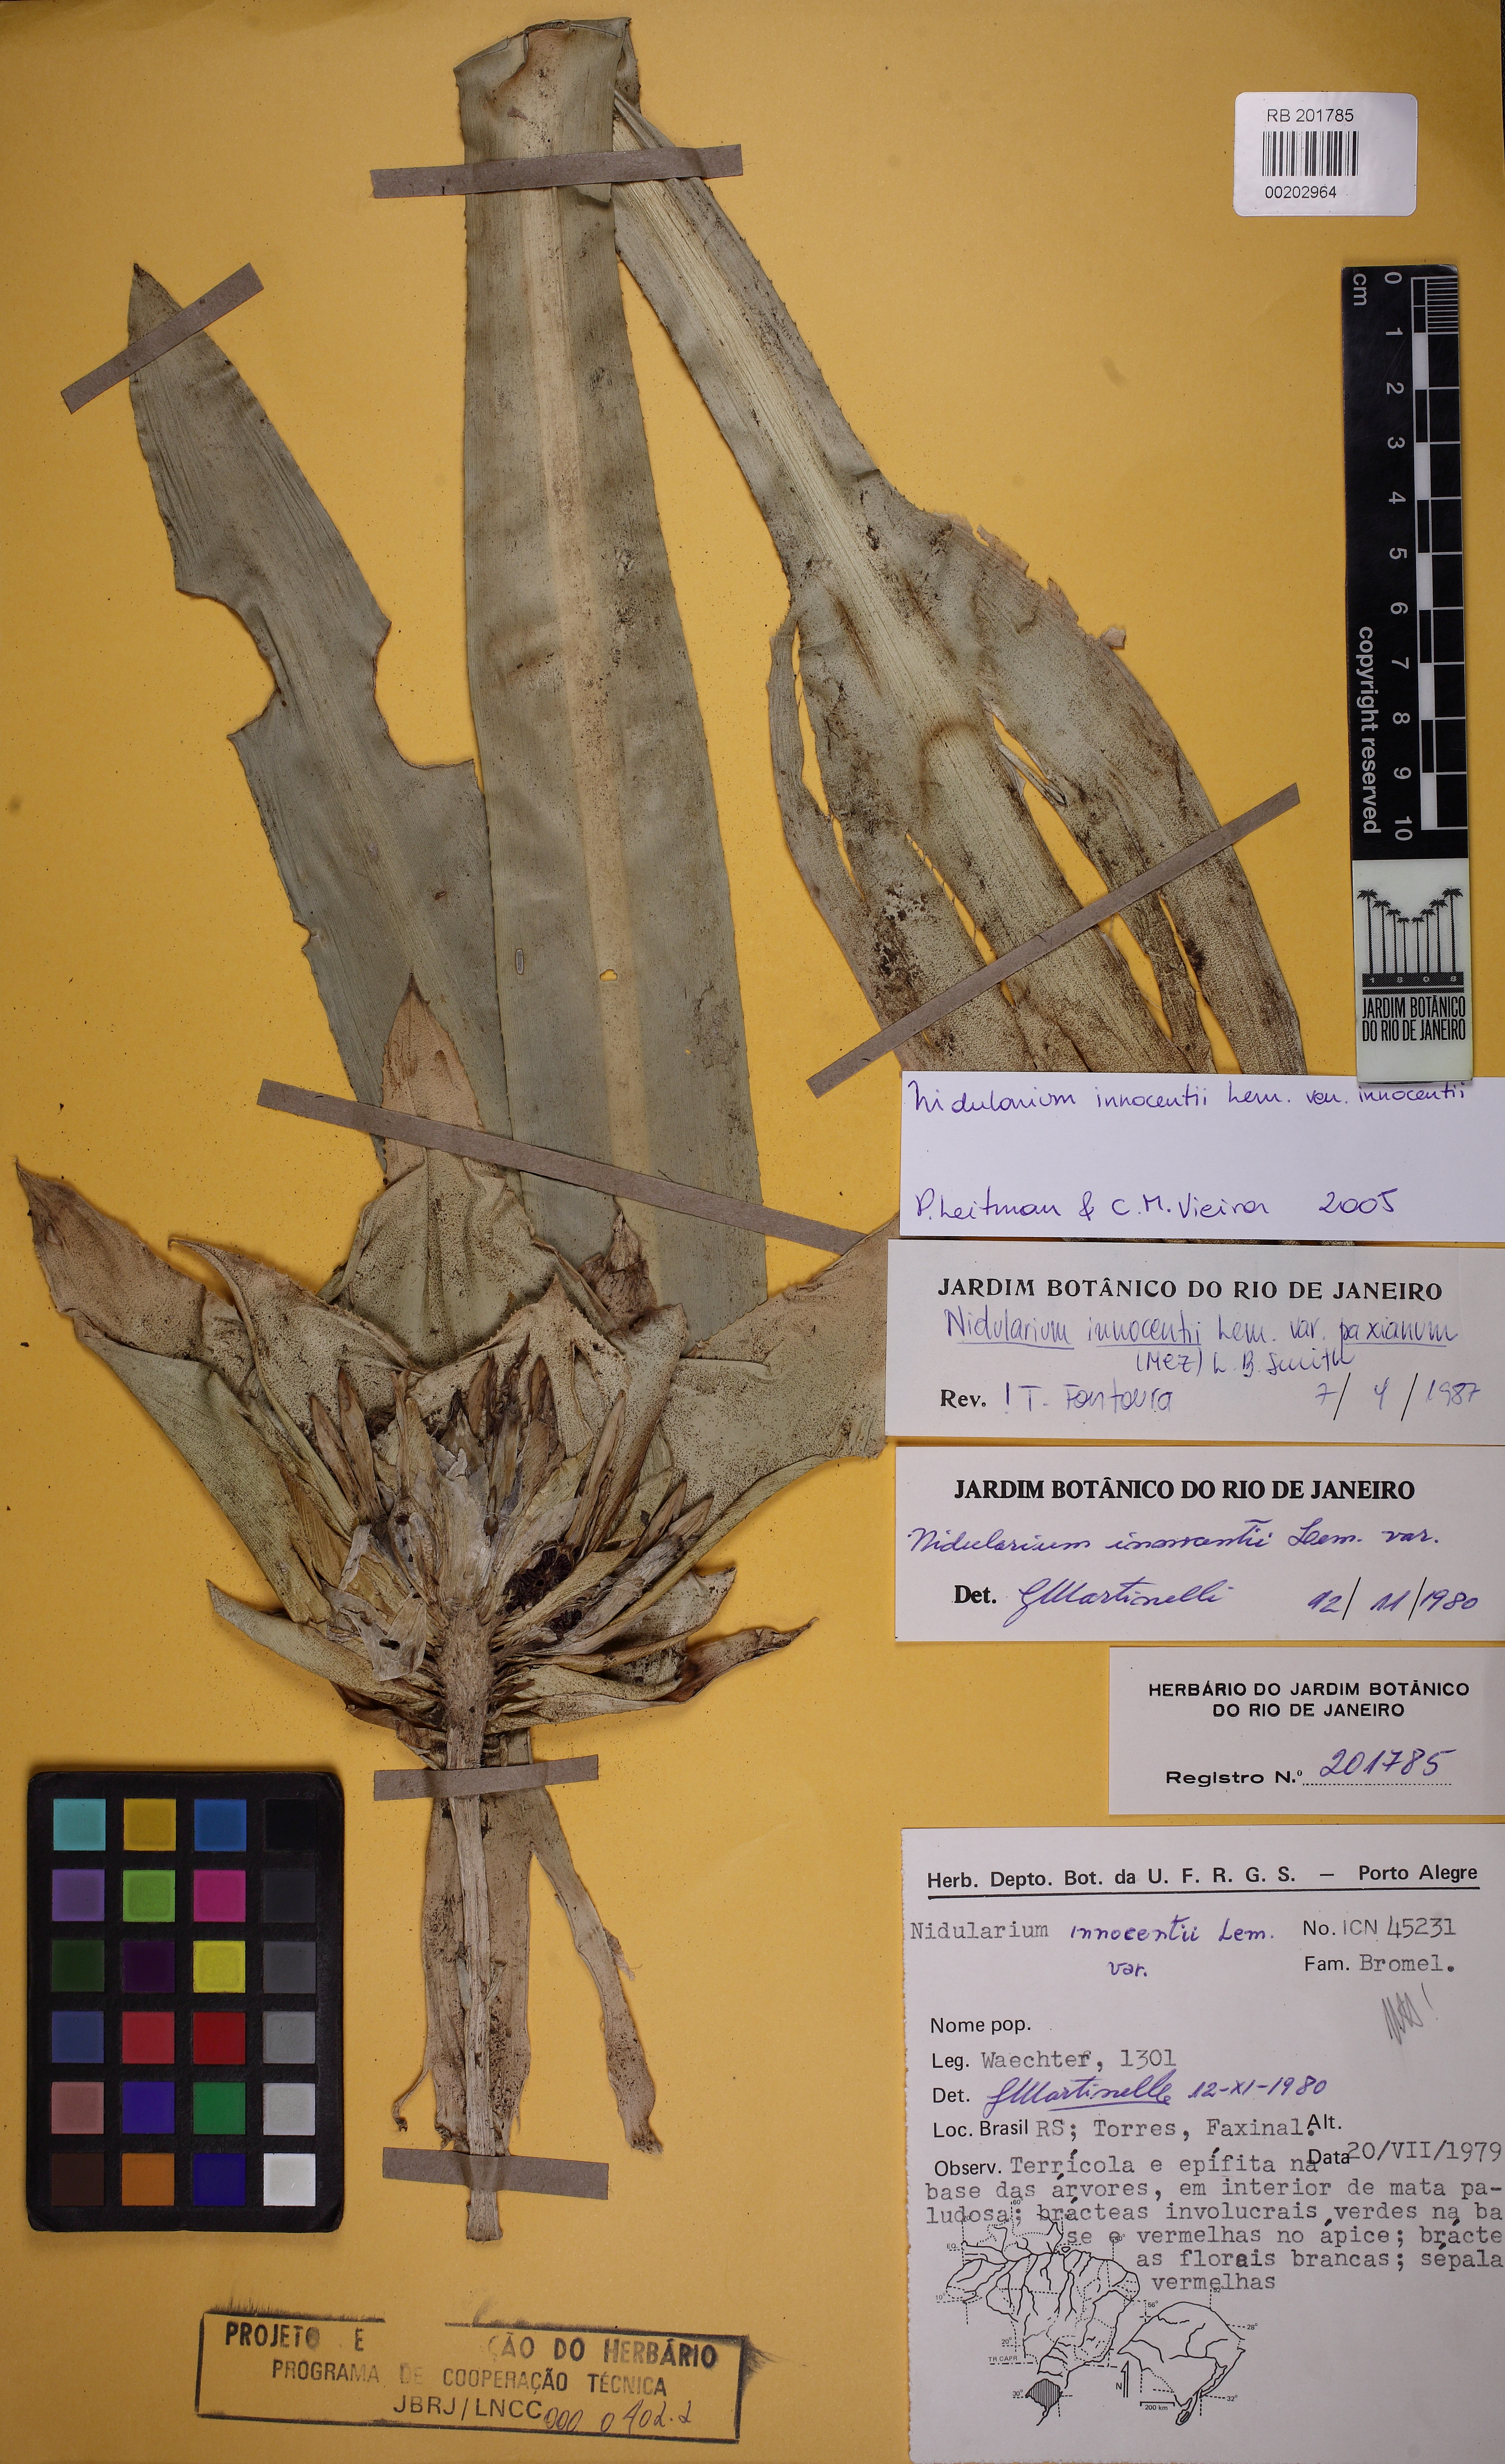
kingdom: Plantae
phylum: Tracheophyta
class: Liliopsida
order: Poales
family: Bromeliaceae
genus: Nidularium
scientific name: Nidularium innocentii
